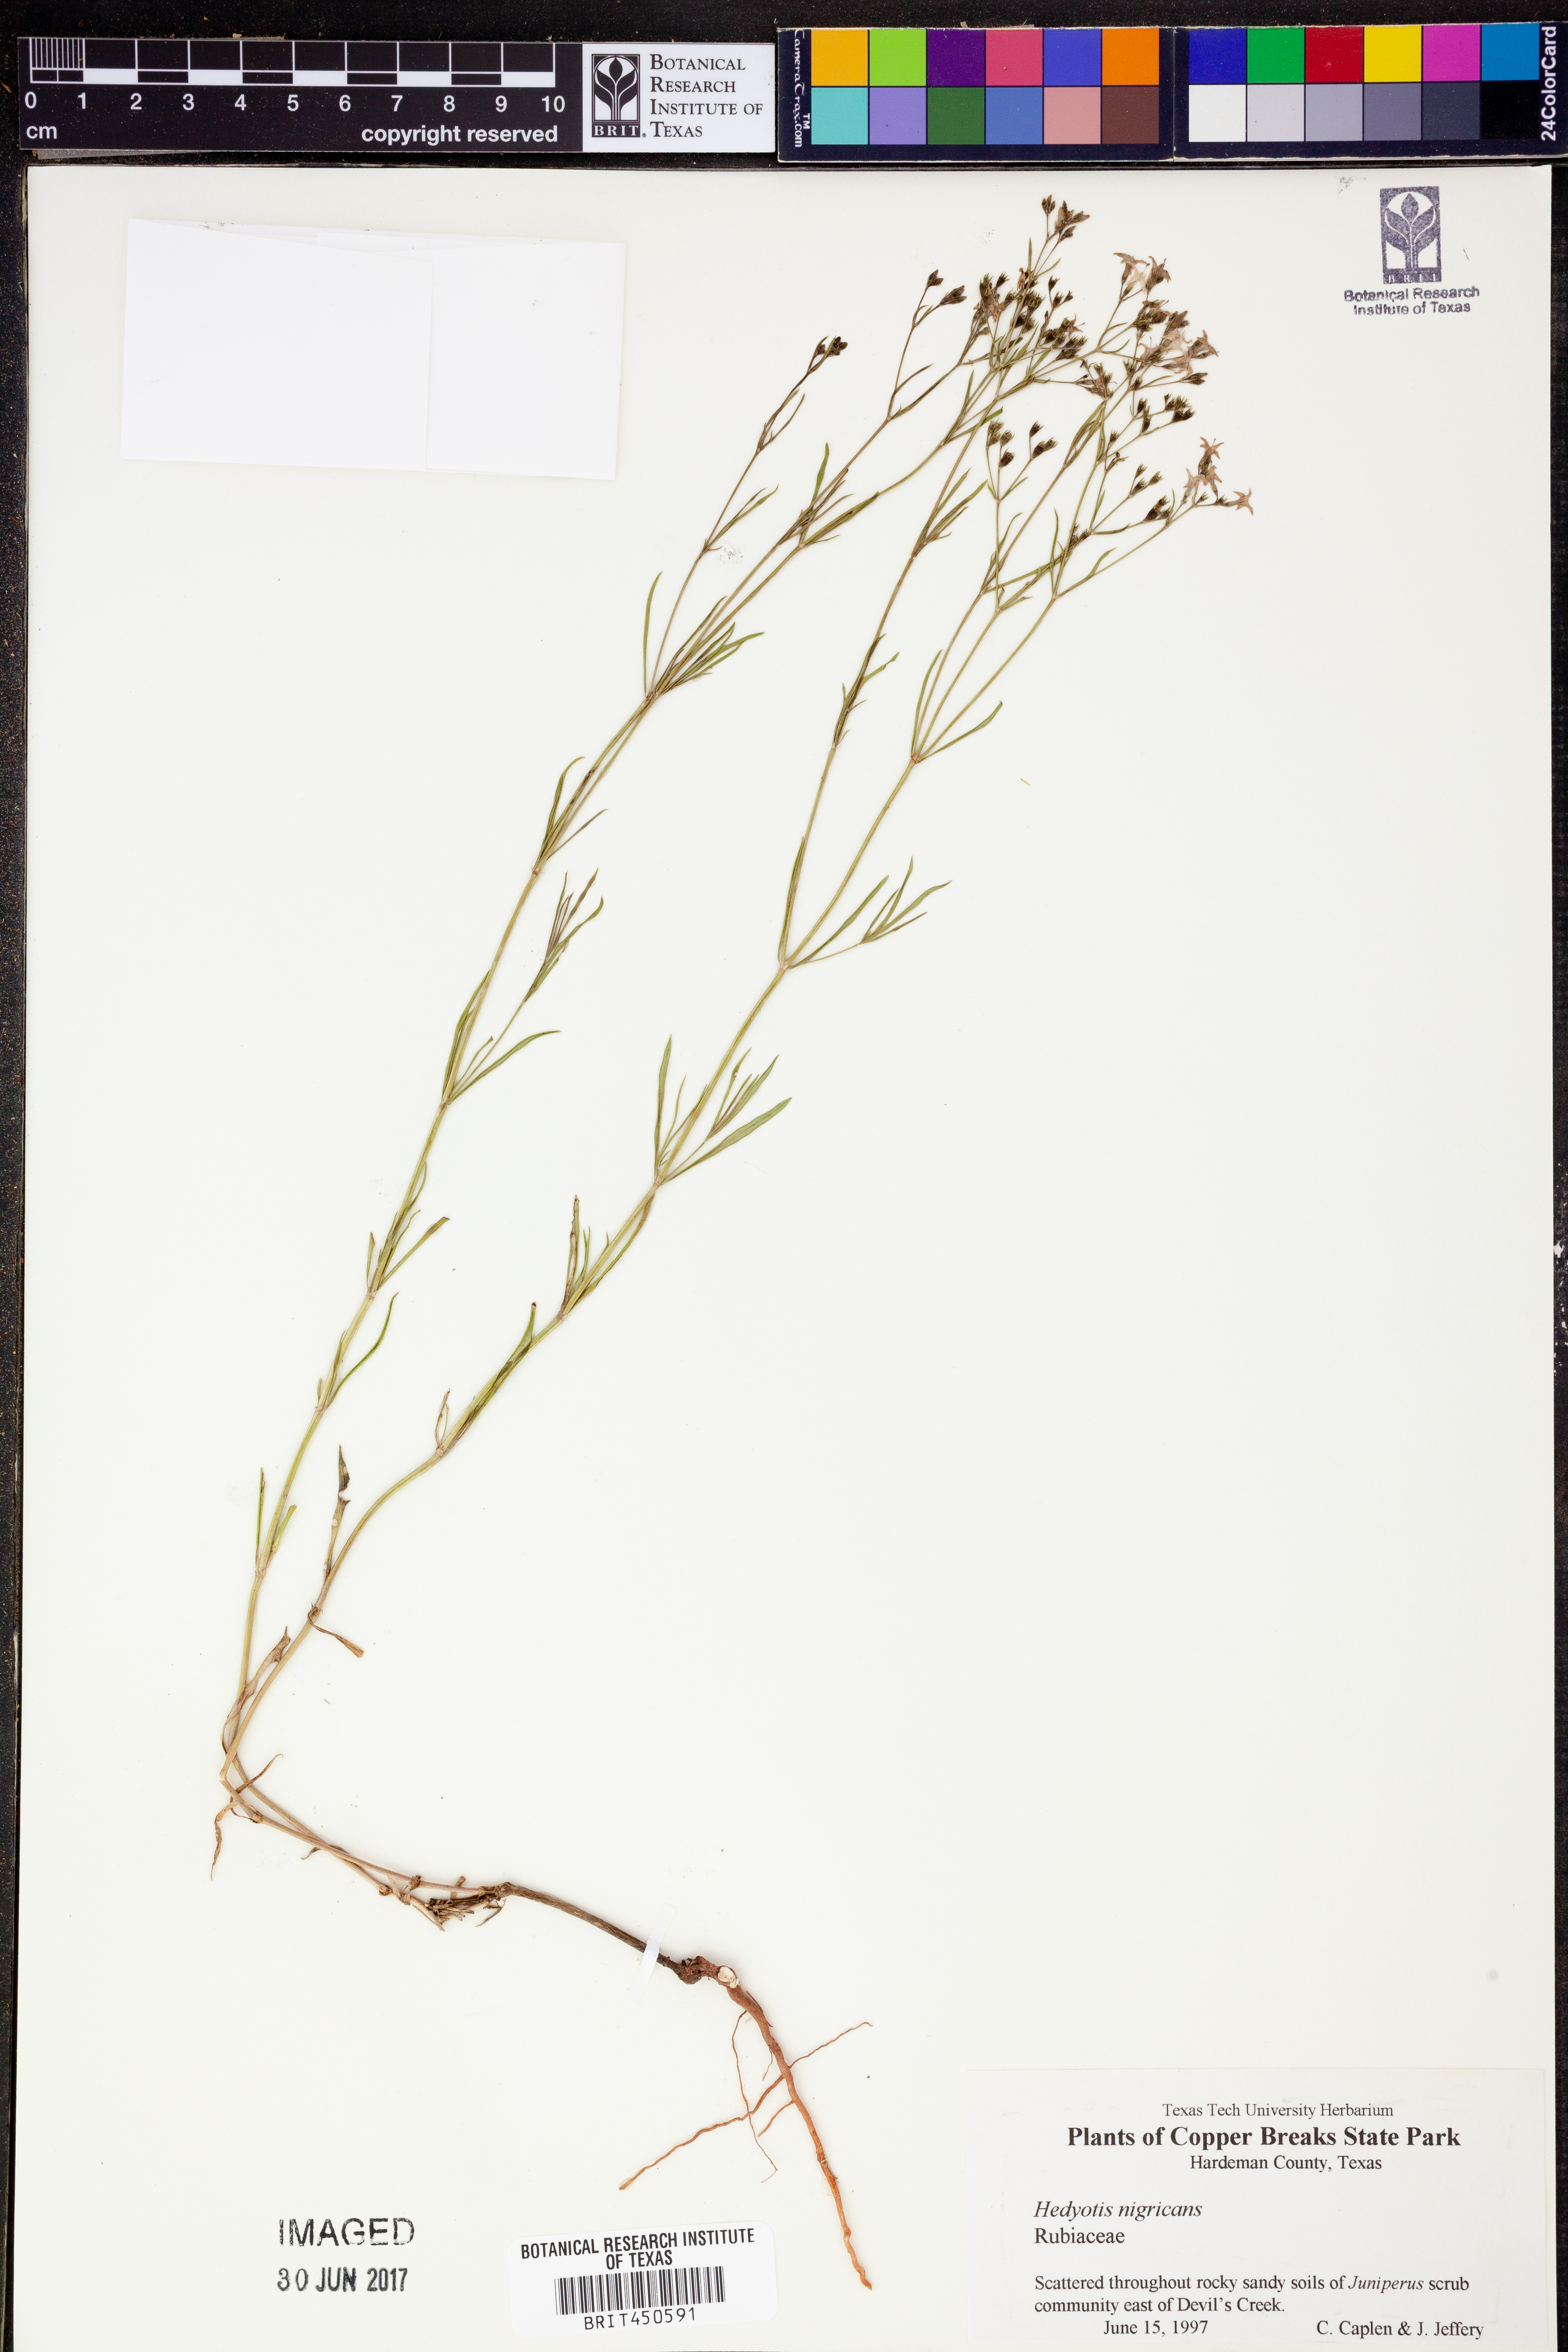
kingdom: Plantae
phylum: Tracheophyta
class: Magnoliopsida
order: Gentianales
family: Rubiaceae
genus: Stenaria
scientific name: Stenaria nigricans
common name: Diamondflowers
